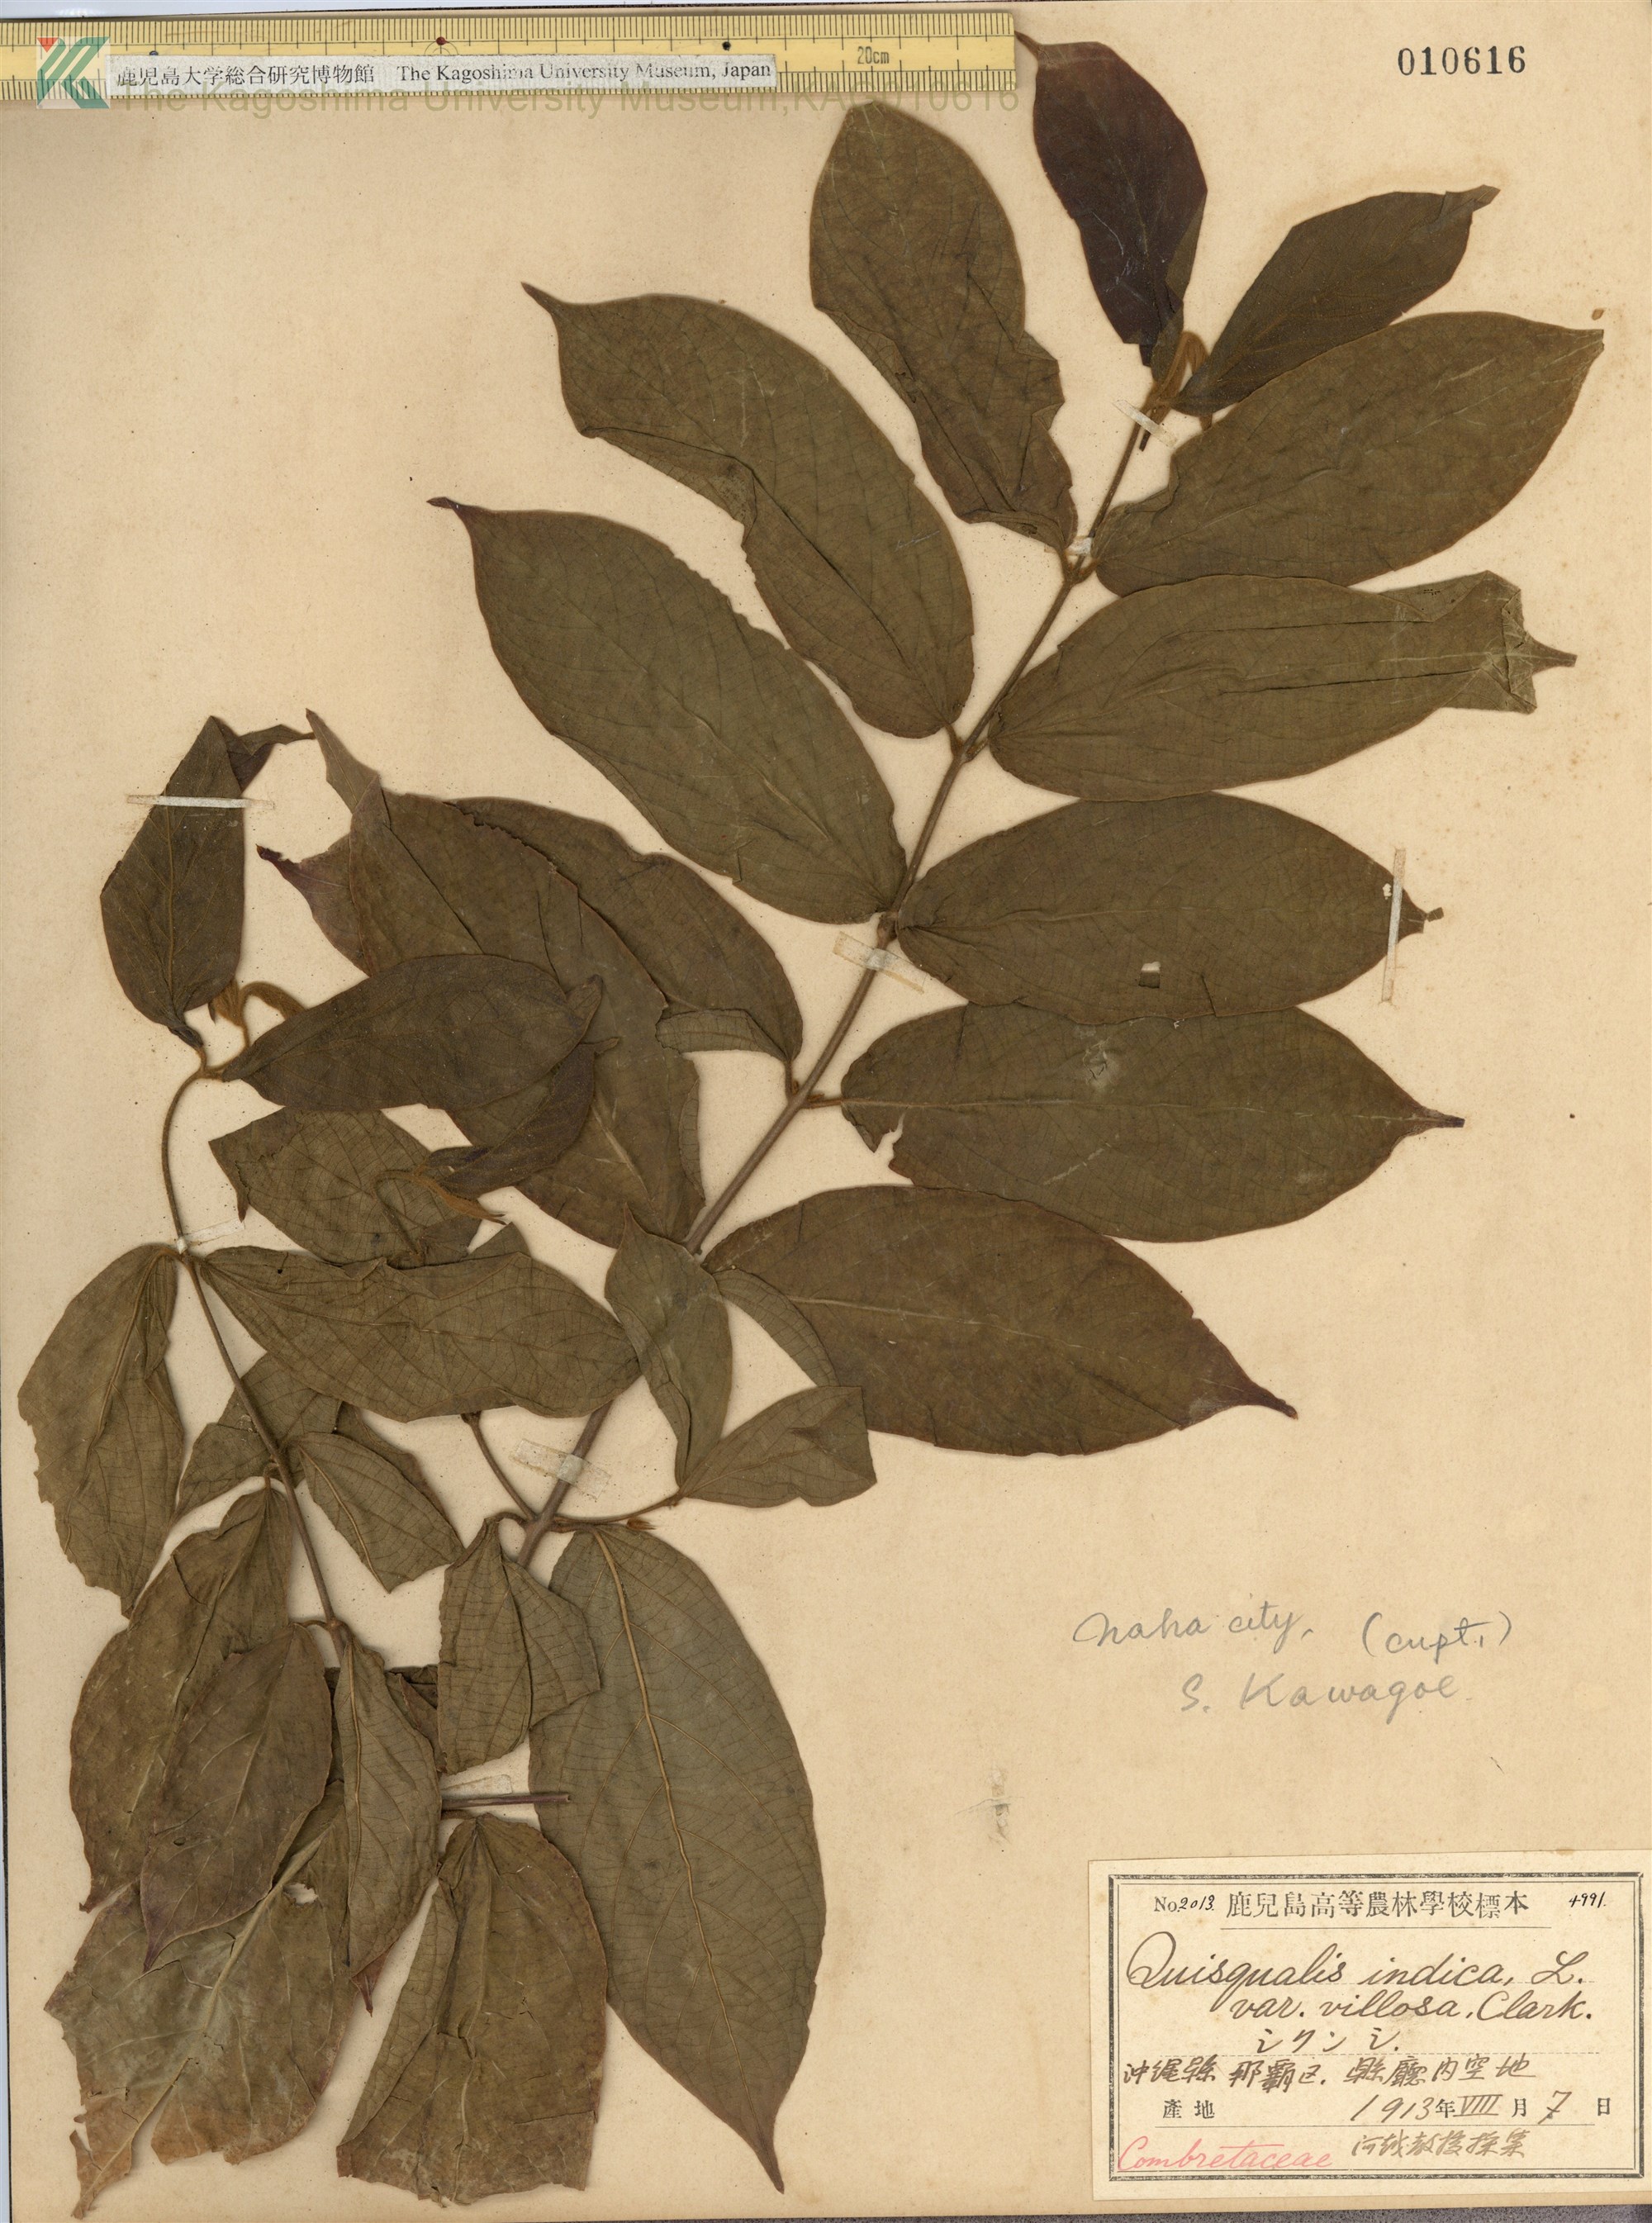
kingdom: Plantae
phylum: Tracheophyta
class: Magnoliopsida
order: Myrtales
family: Combretaceae
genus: Combretum
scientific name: Combretum indicum
